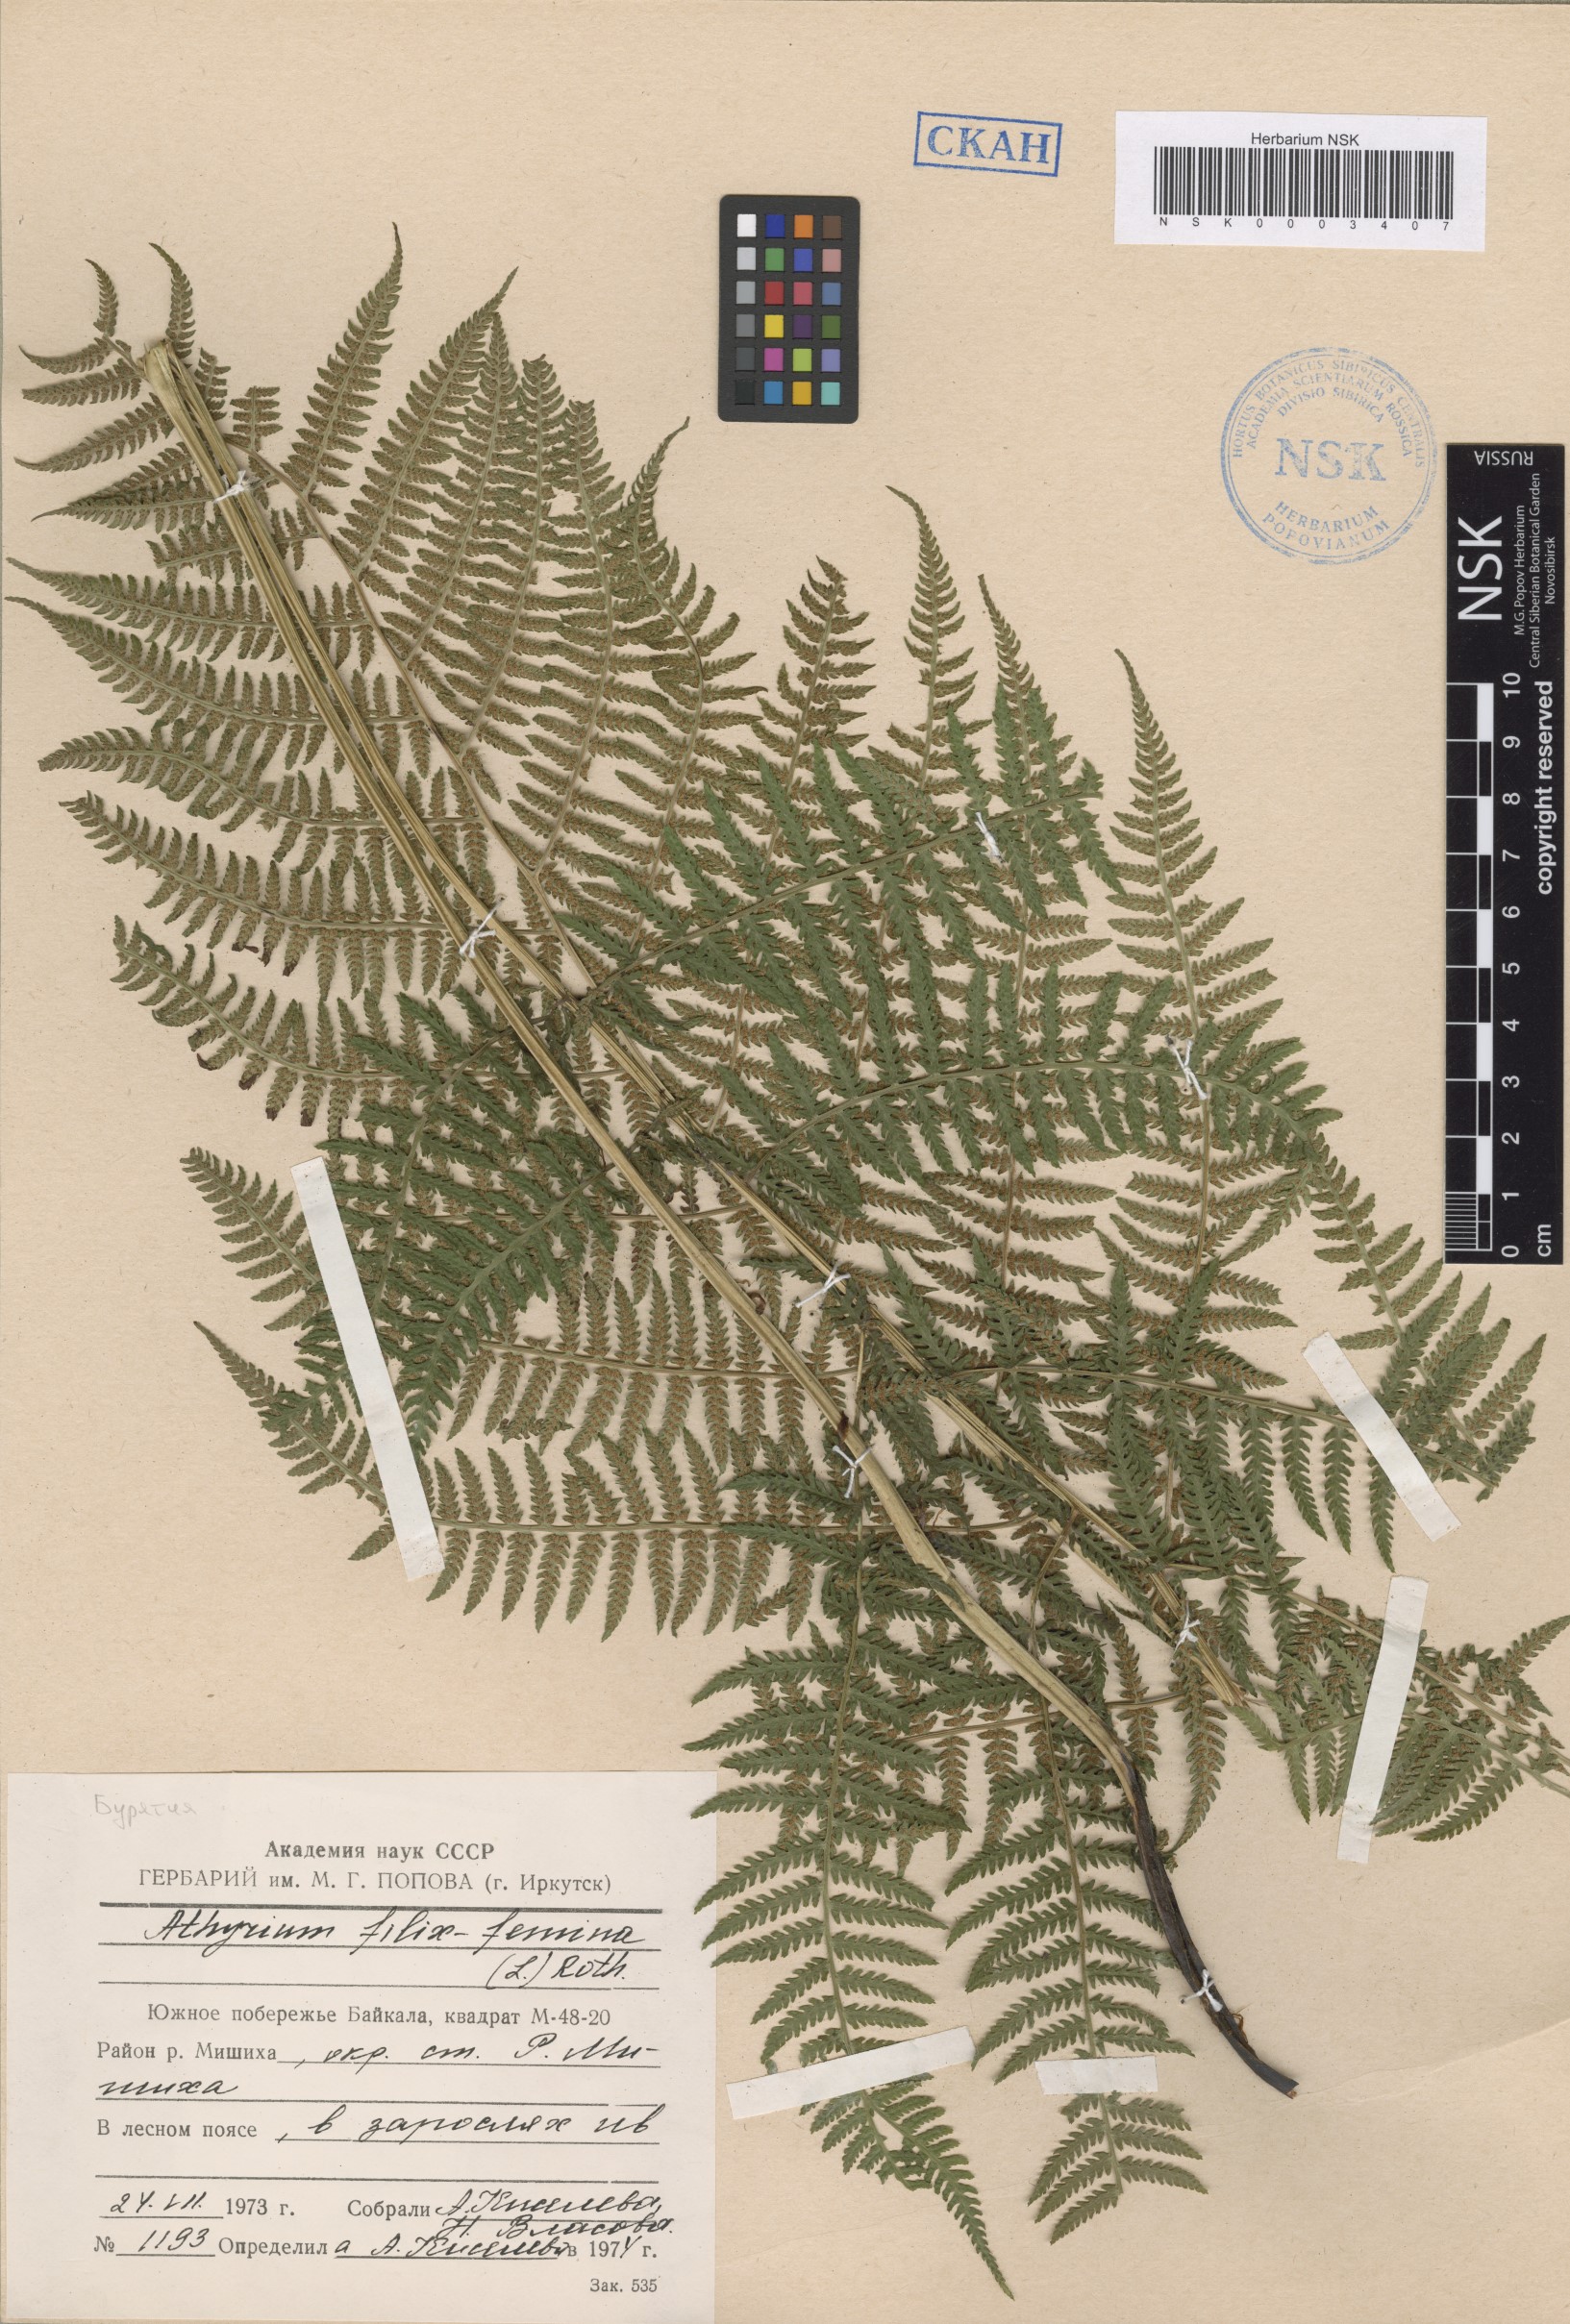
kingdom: Plantae
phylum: Tracheophyta
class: Polypodiopsida
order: Polypodiales
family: Athyriaceae
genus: Athyrium
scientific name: Athyrium filix-femina
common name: Lady fern
